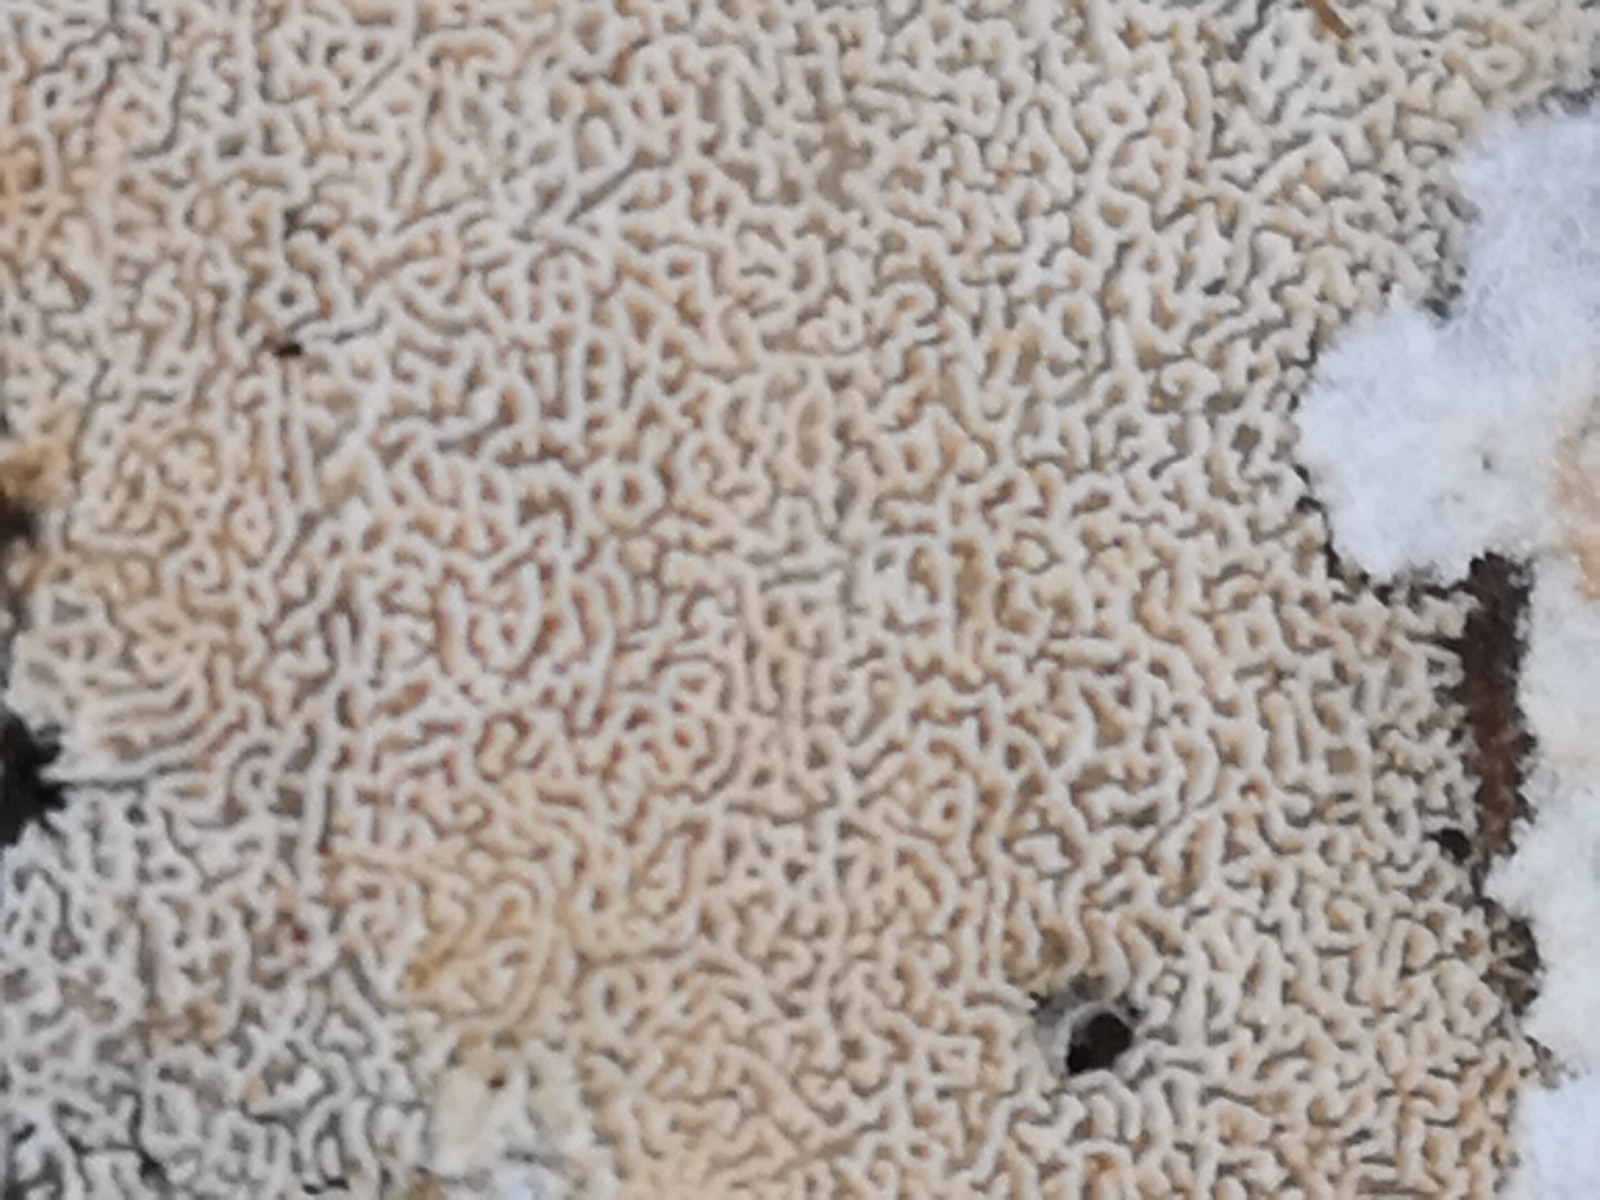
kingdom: Fungi
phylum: Basidiomycota
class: Agaricomycetes
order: Hymenochaetales
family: Schizoporaceae
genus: Xylodon
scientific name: Xylodon subtropicus
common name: labyrint-tandsvamp
